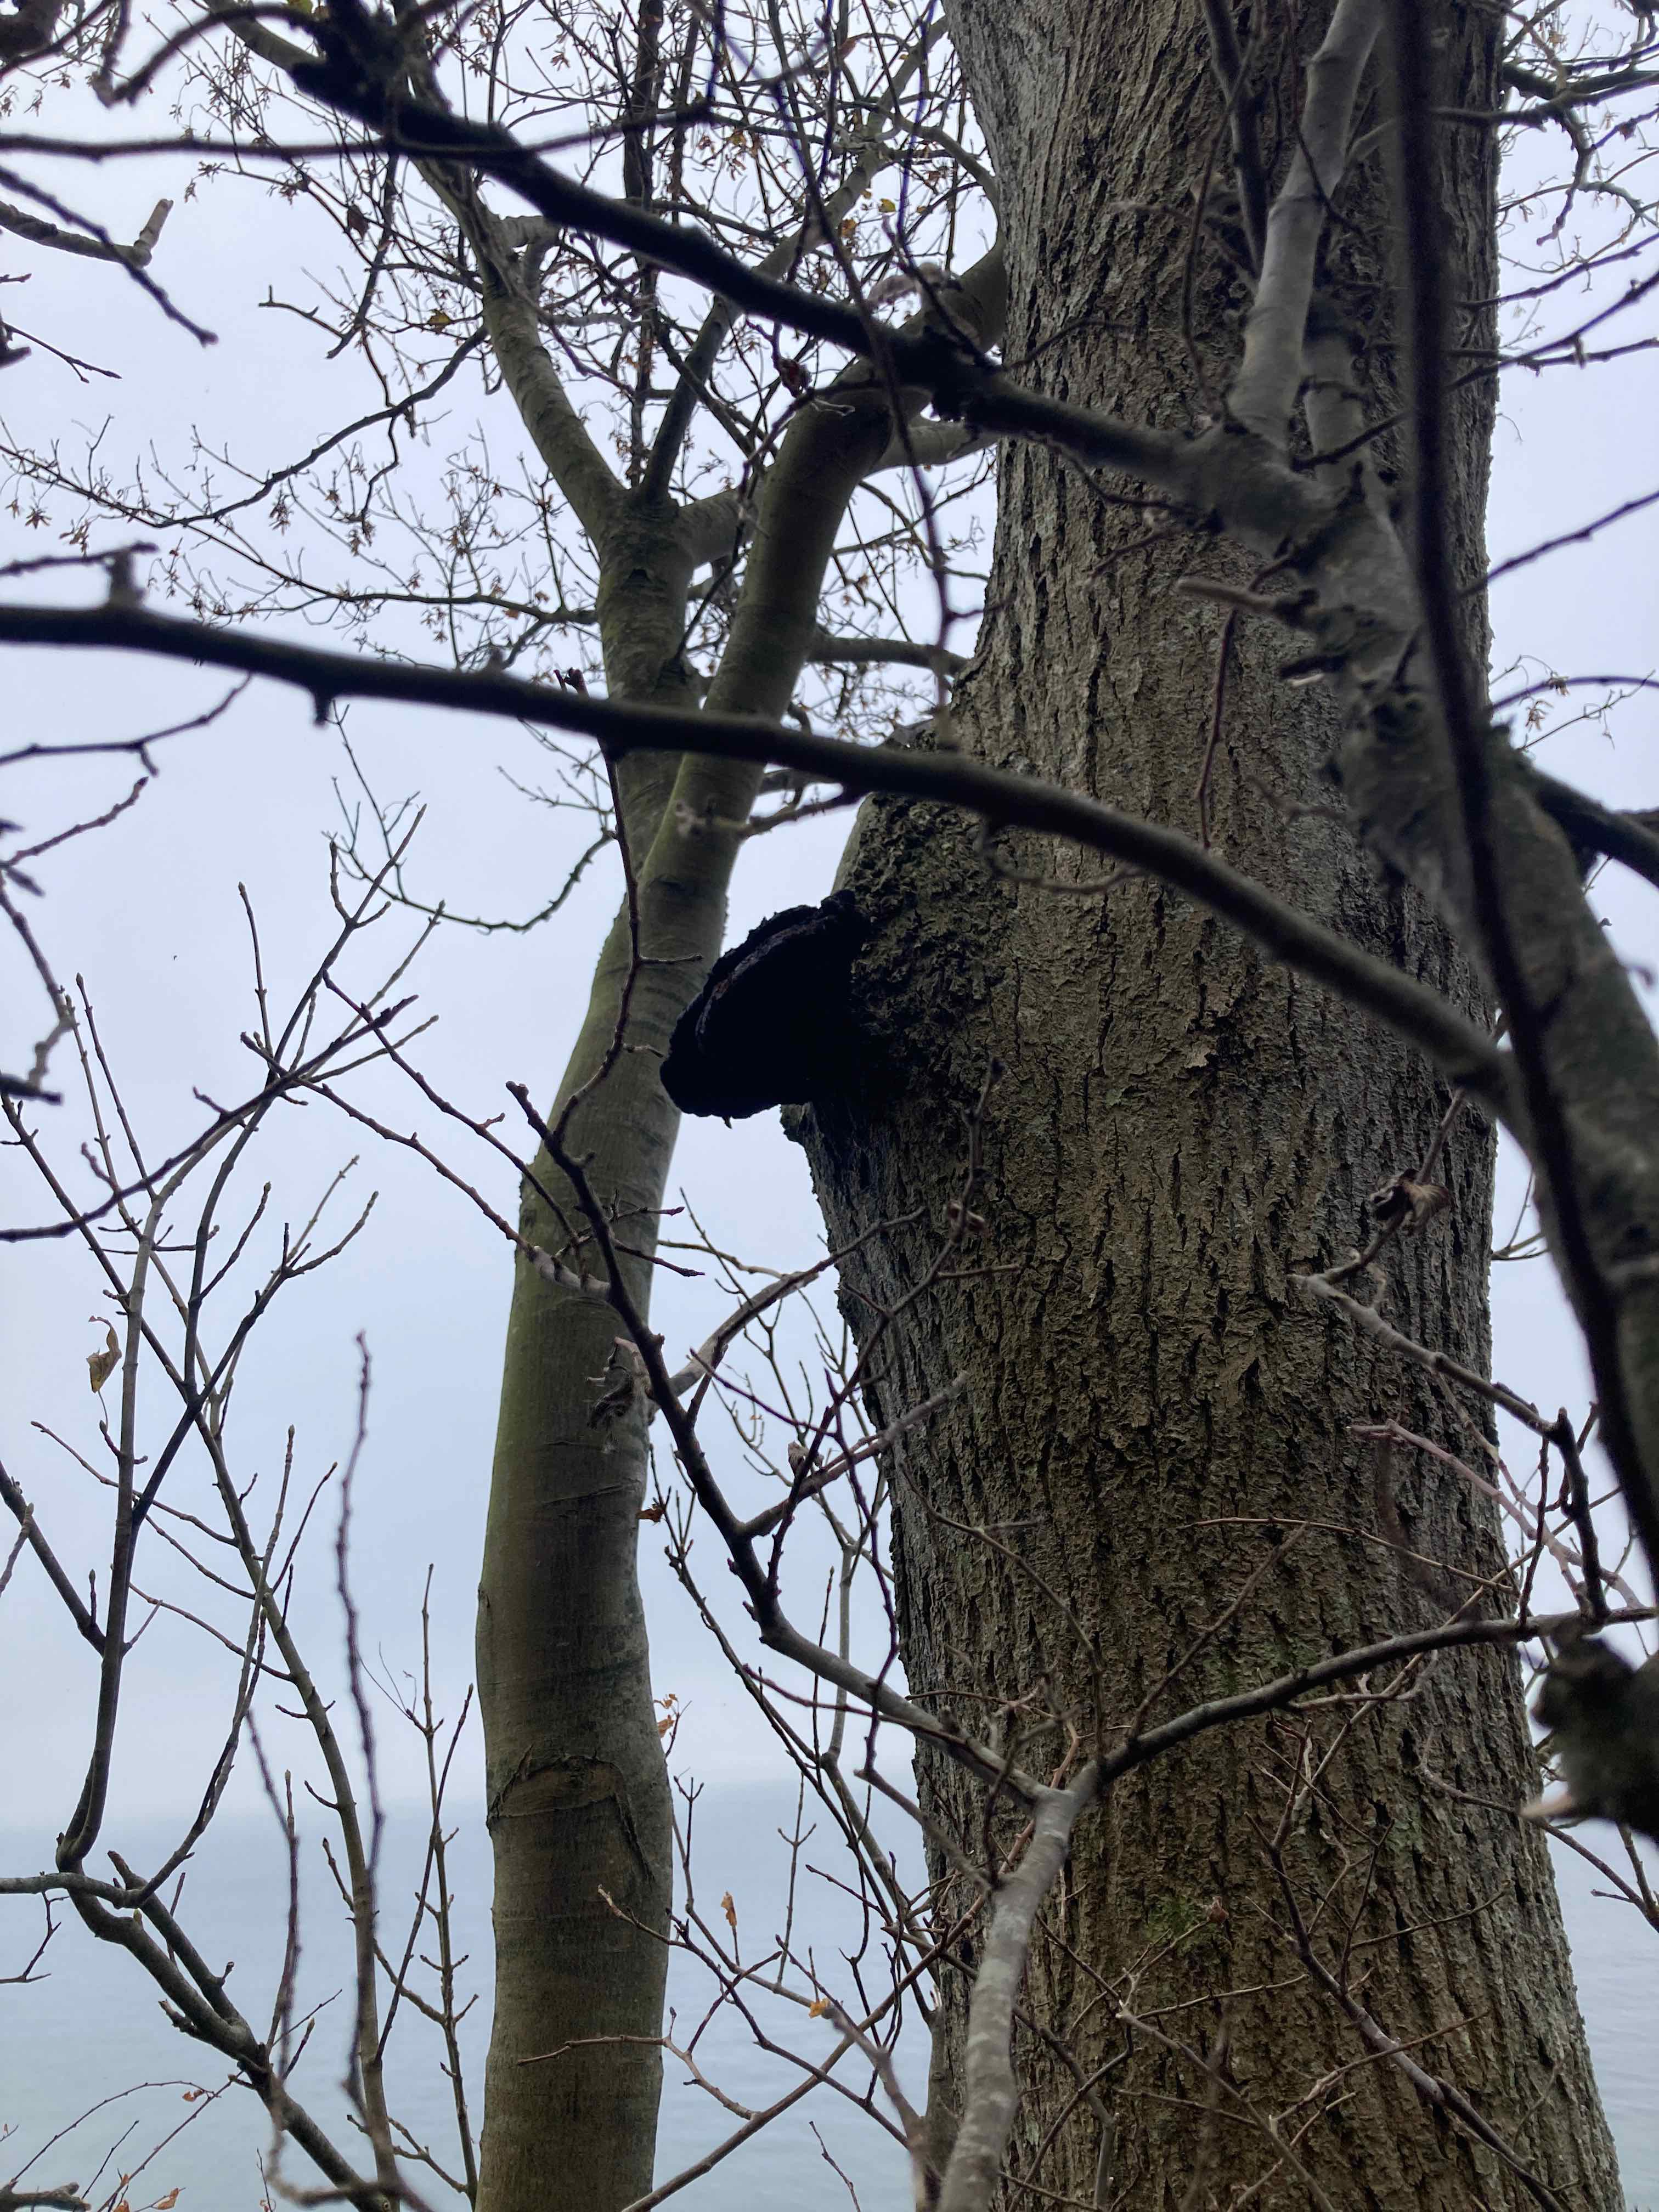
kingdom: Fungi
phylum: Basidiomycota
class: Agaricomycetes
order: Hymenochaetales
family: Hymenochaetaceae
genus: Inonotus
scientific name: Inonotus hispidus
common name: børstehåret spejlporesvamp
